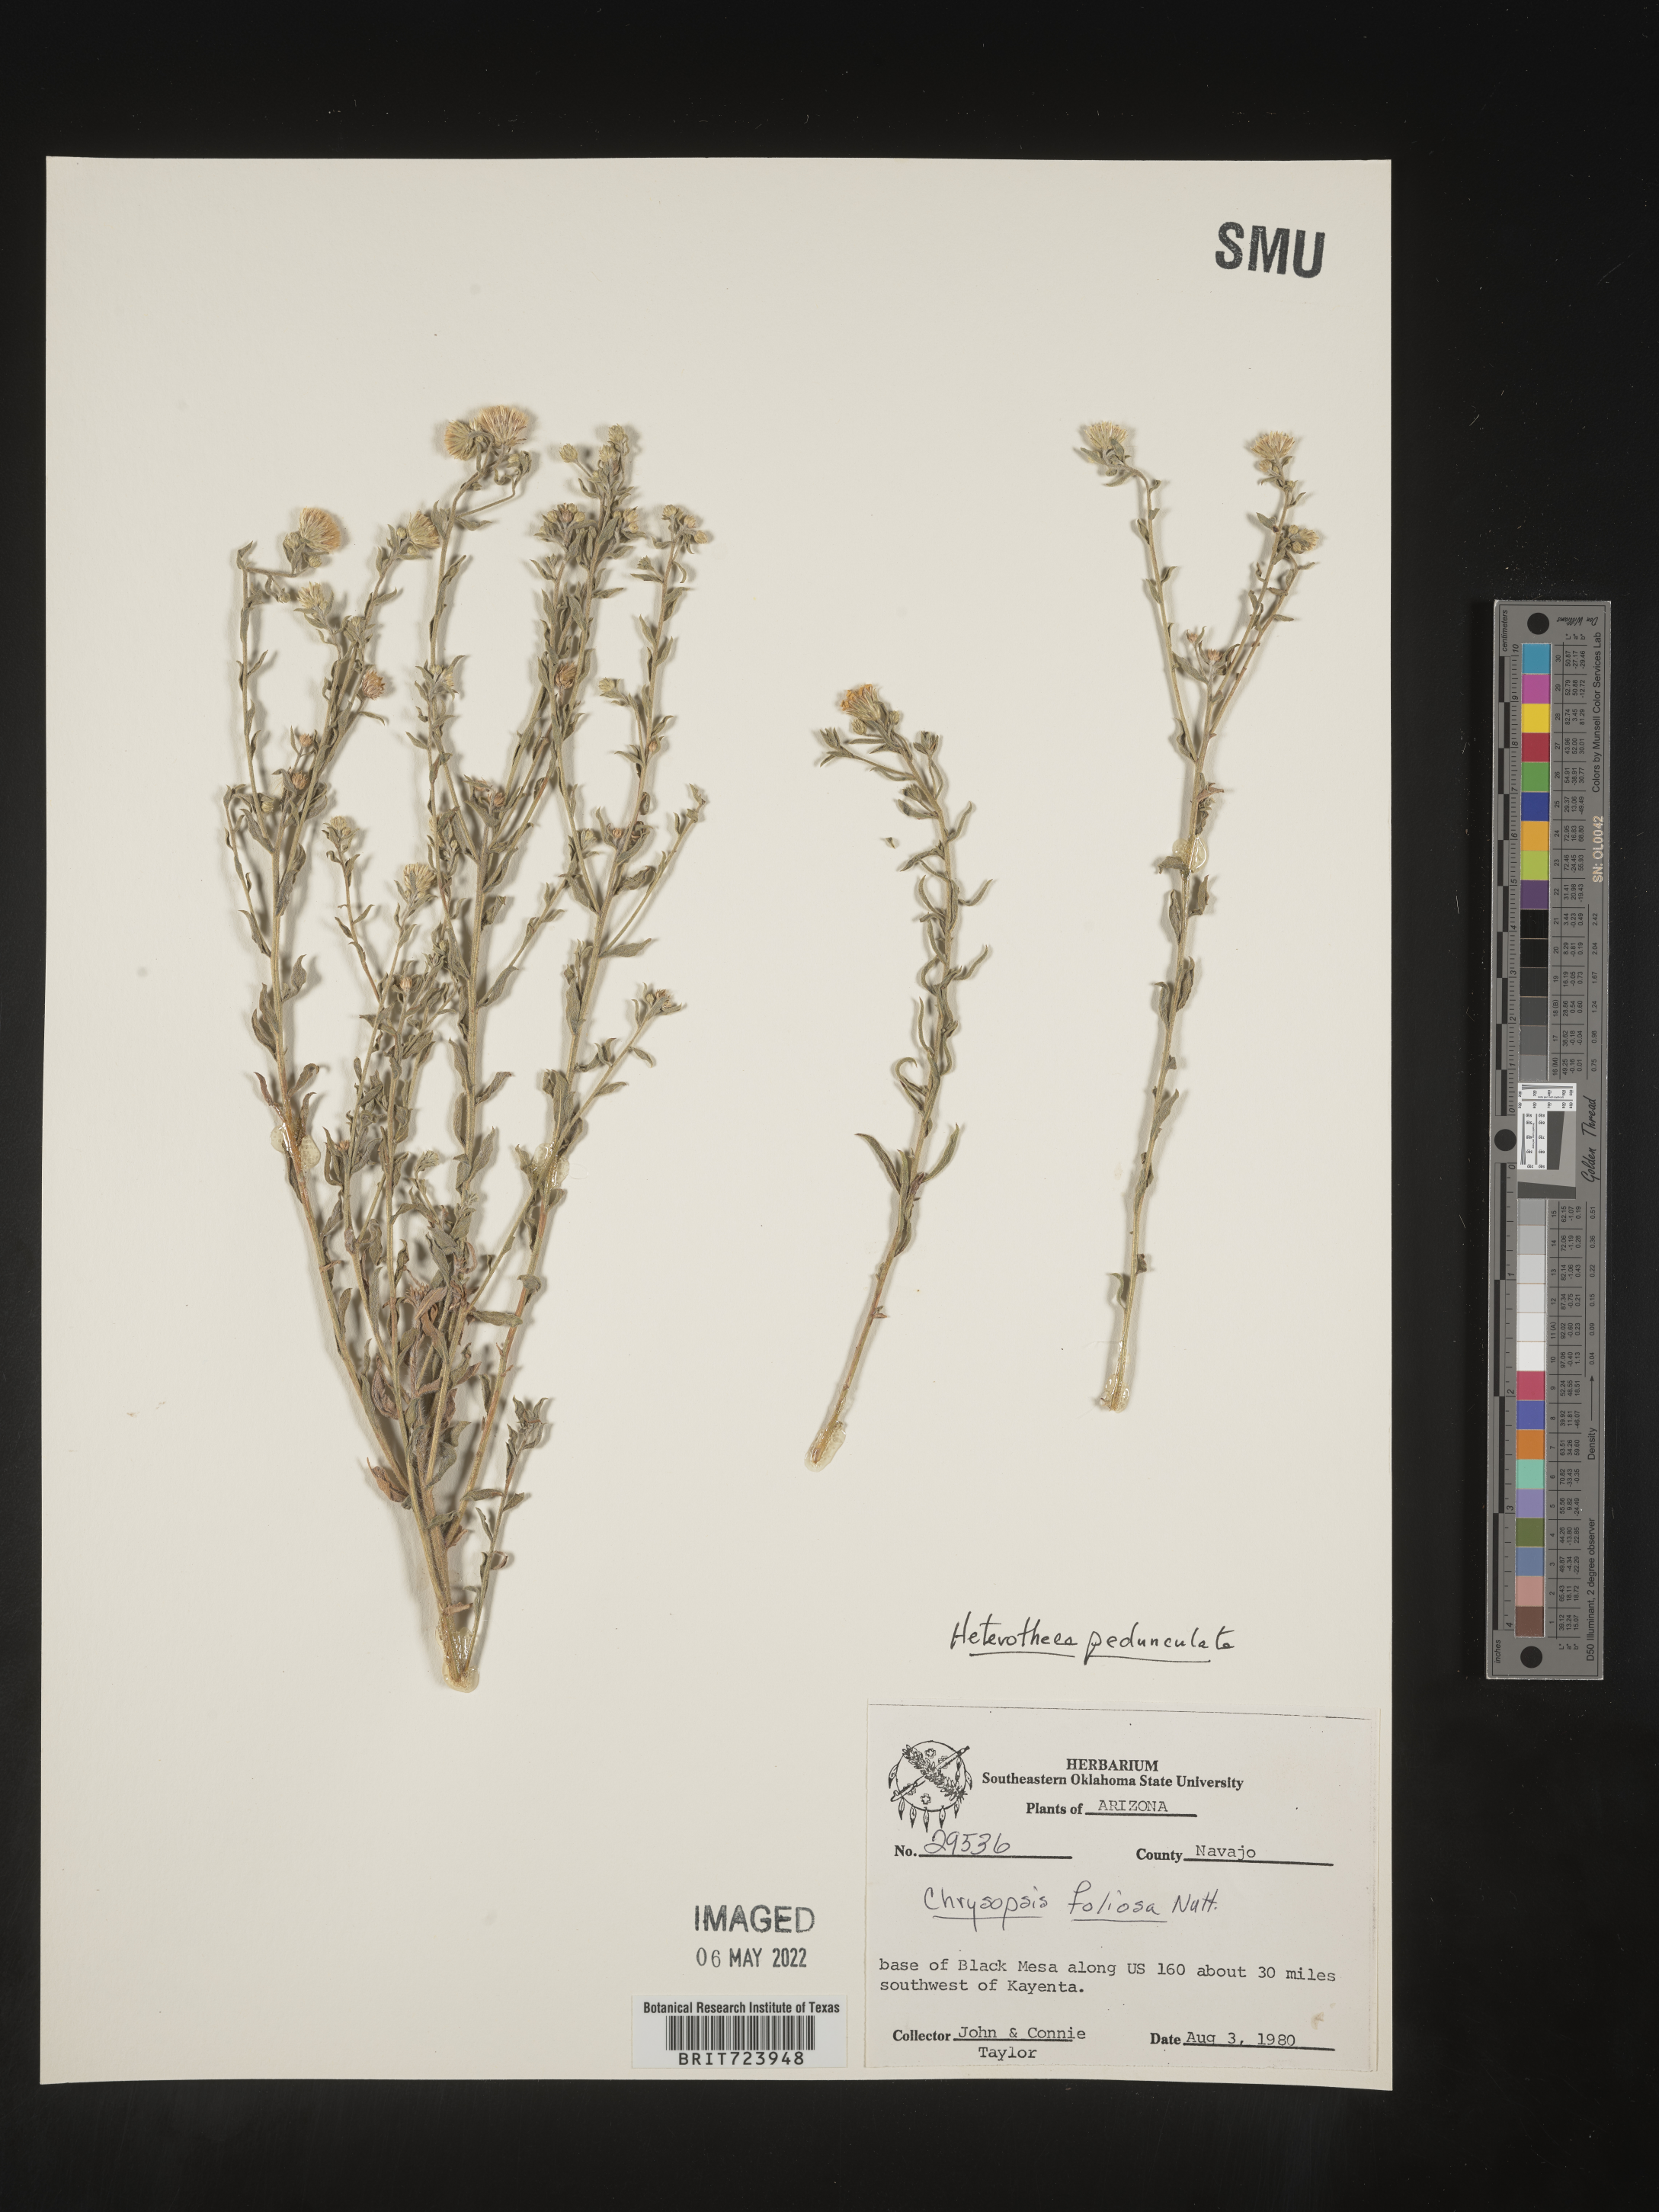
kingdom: Plantae
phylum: Tracheophyta
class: Magnoliopsida
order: Asterales
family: Asteraceae
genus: Heterotheca
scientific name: Heterotheca pedunculata
